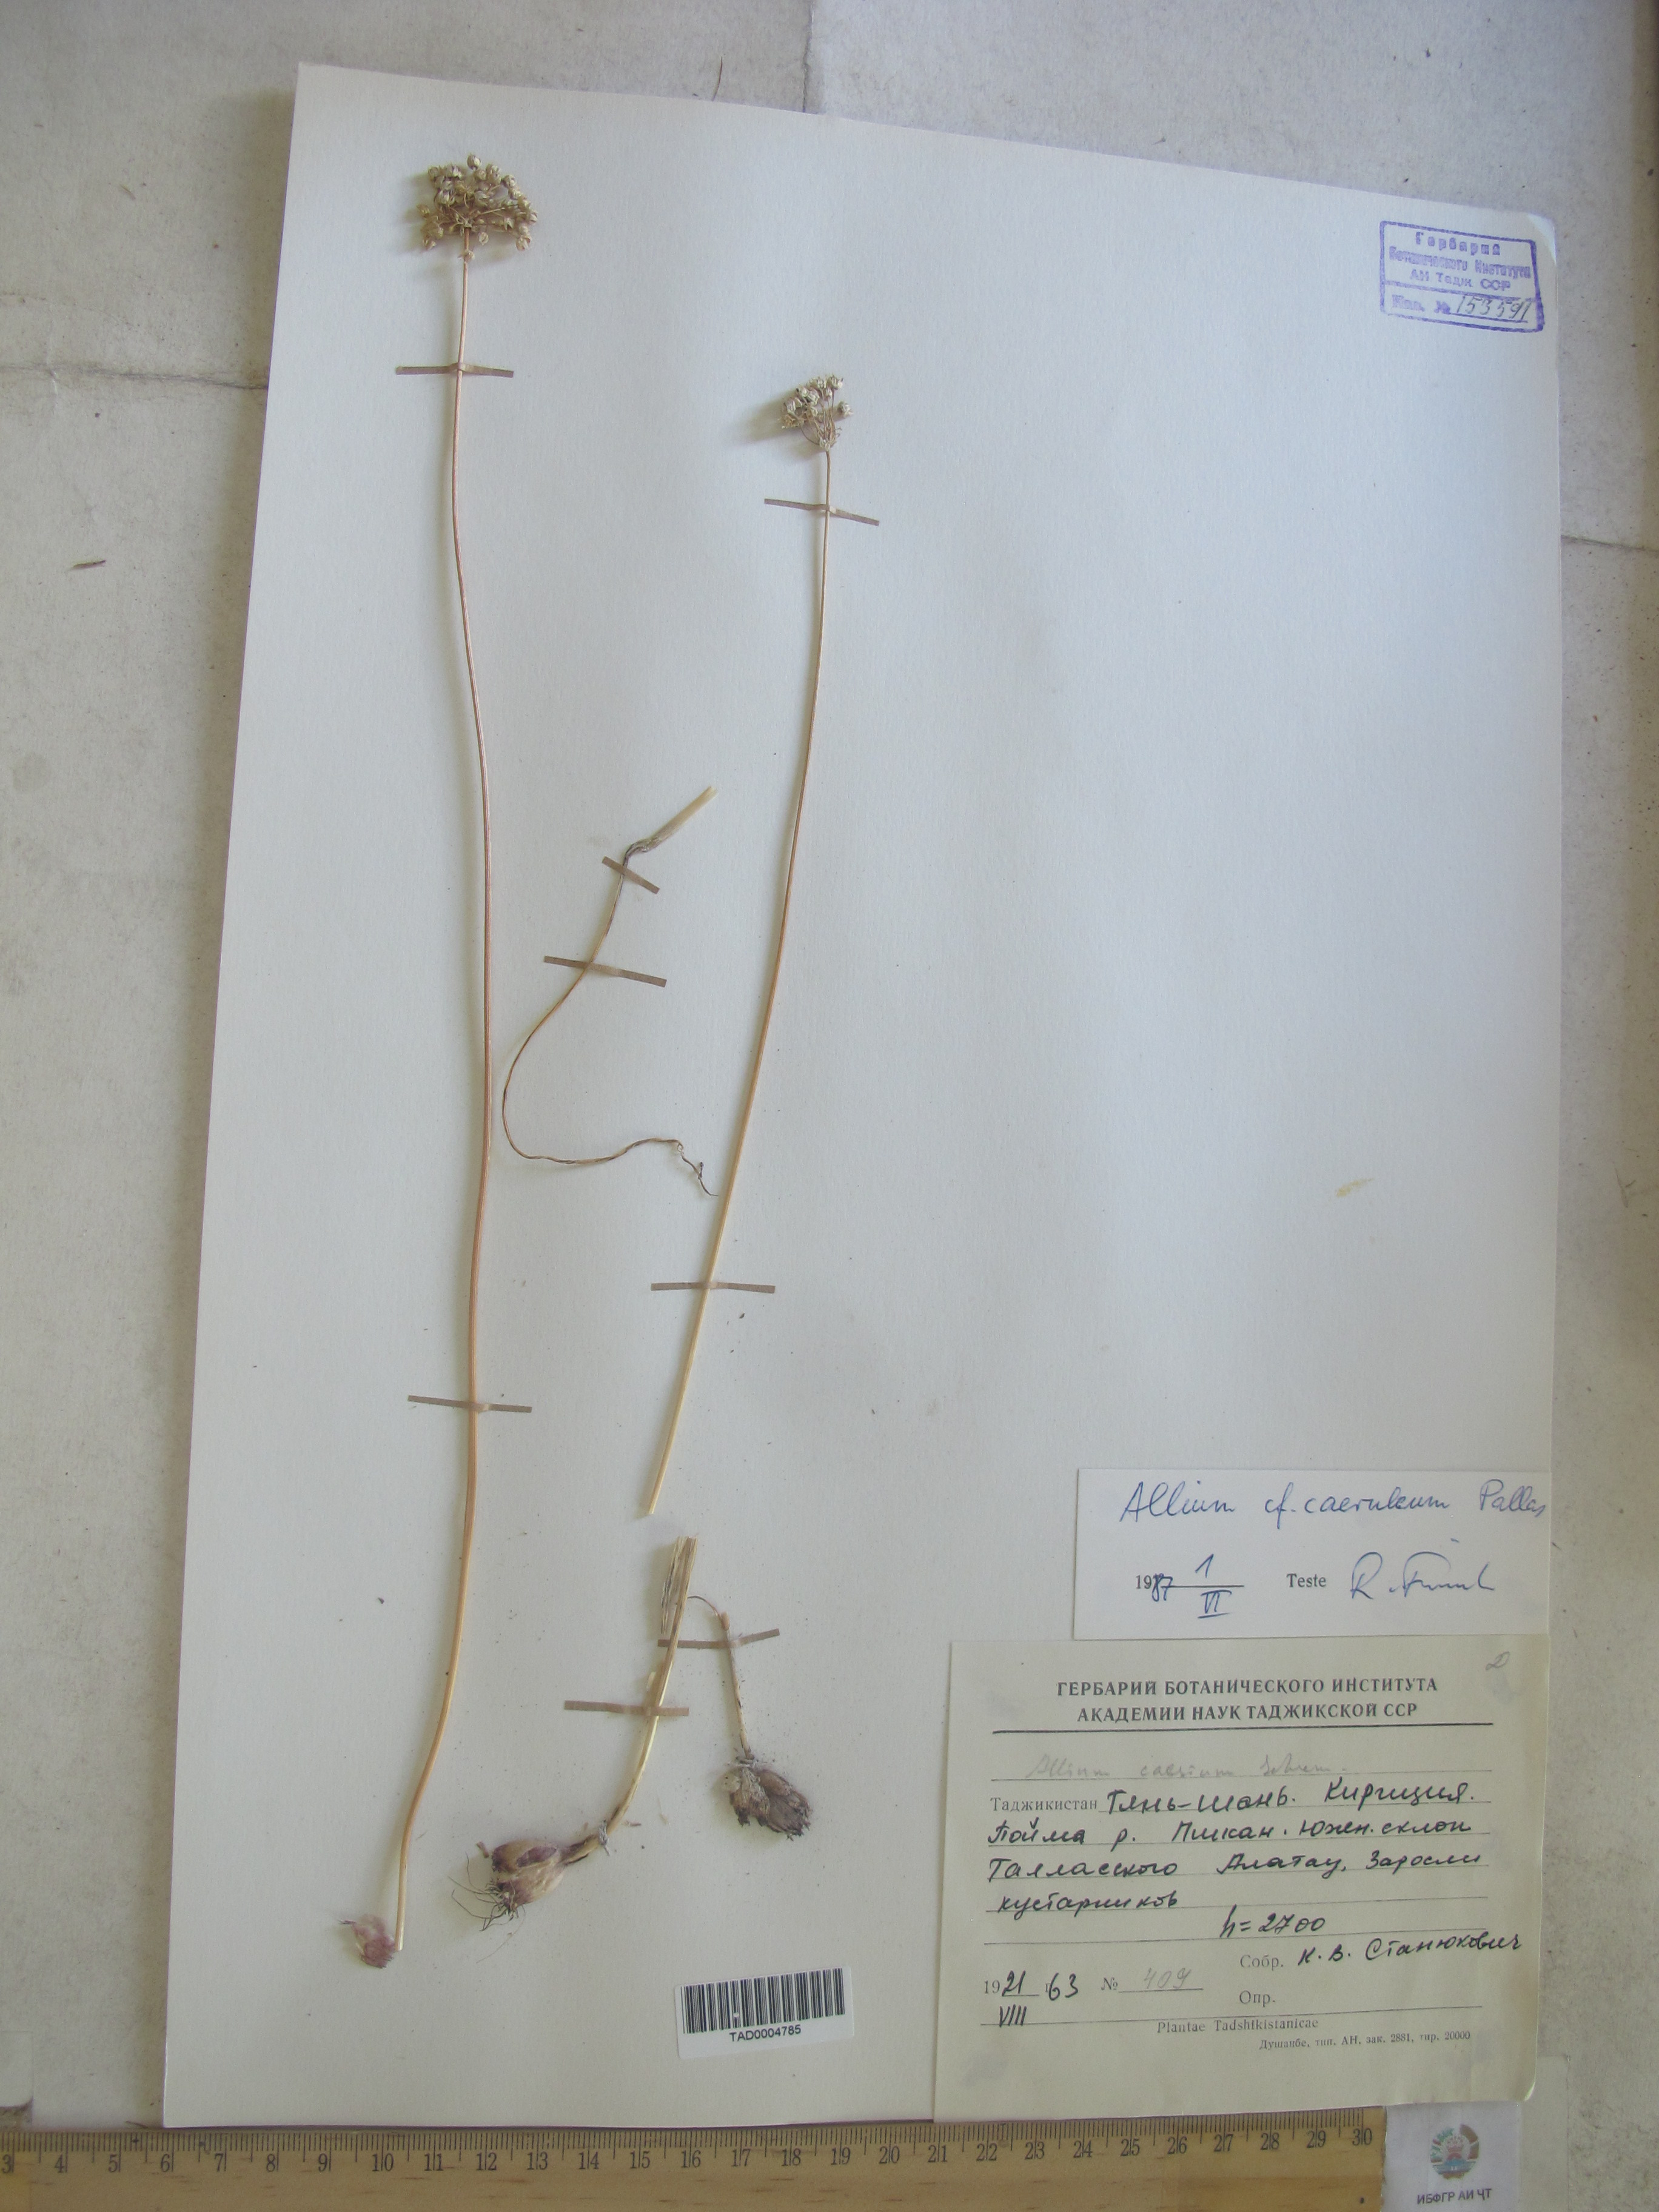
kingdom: Plantae
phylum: Tracheophyta
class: Liliopsida
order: Asparagales
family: Amaryllidaceae
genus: Allium
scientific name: Allium caesium
